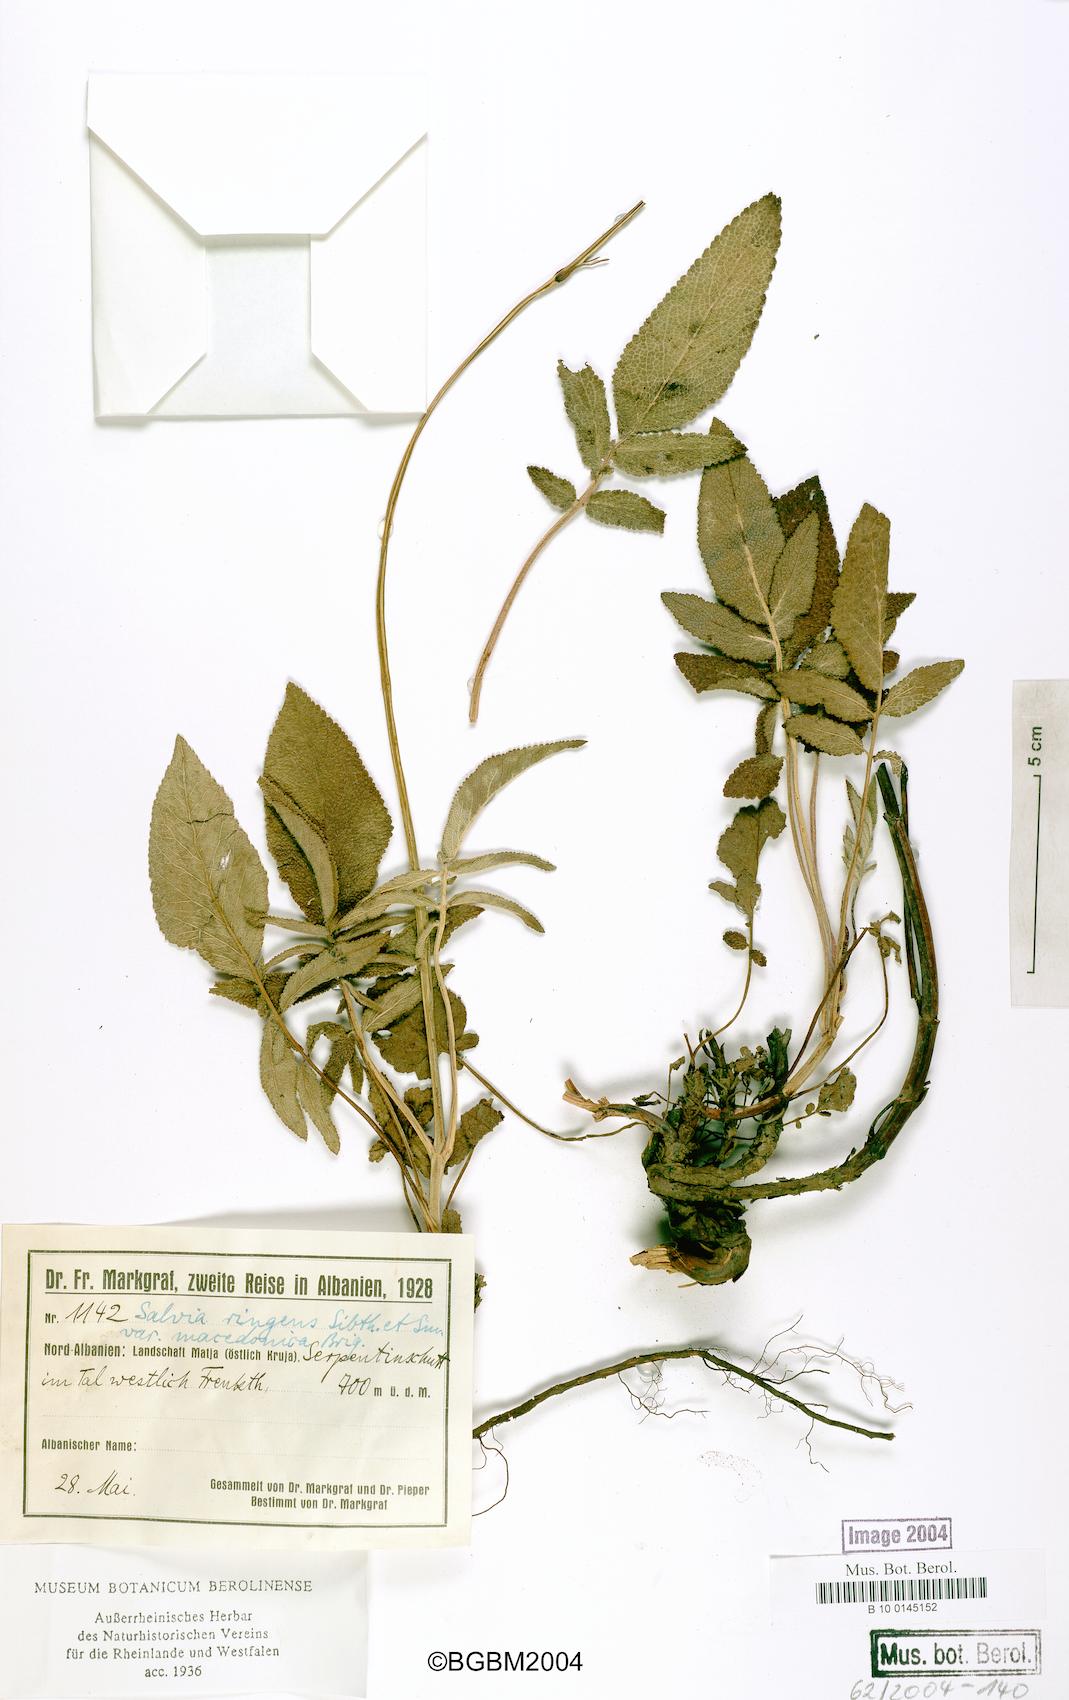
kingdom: Plantae
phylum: Tracheophyta
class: Magnoliopsida
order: Lamiales
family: Lamiaceae
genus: Salvia
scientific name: Salvia ringens
